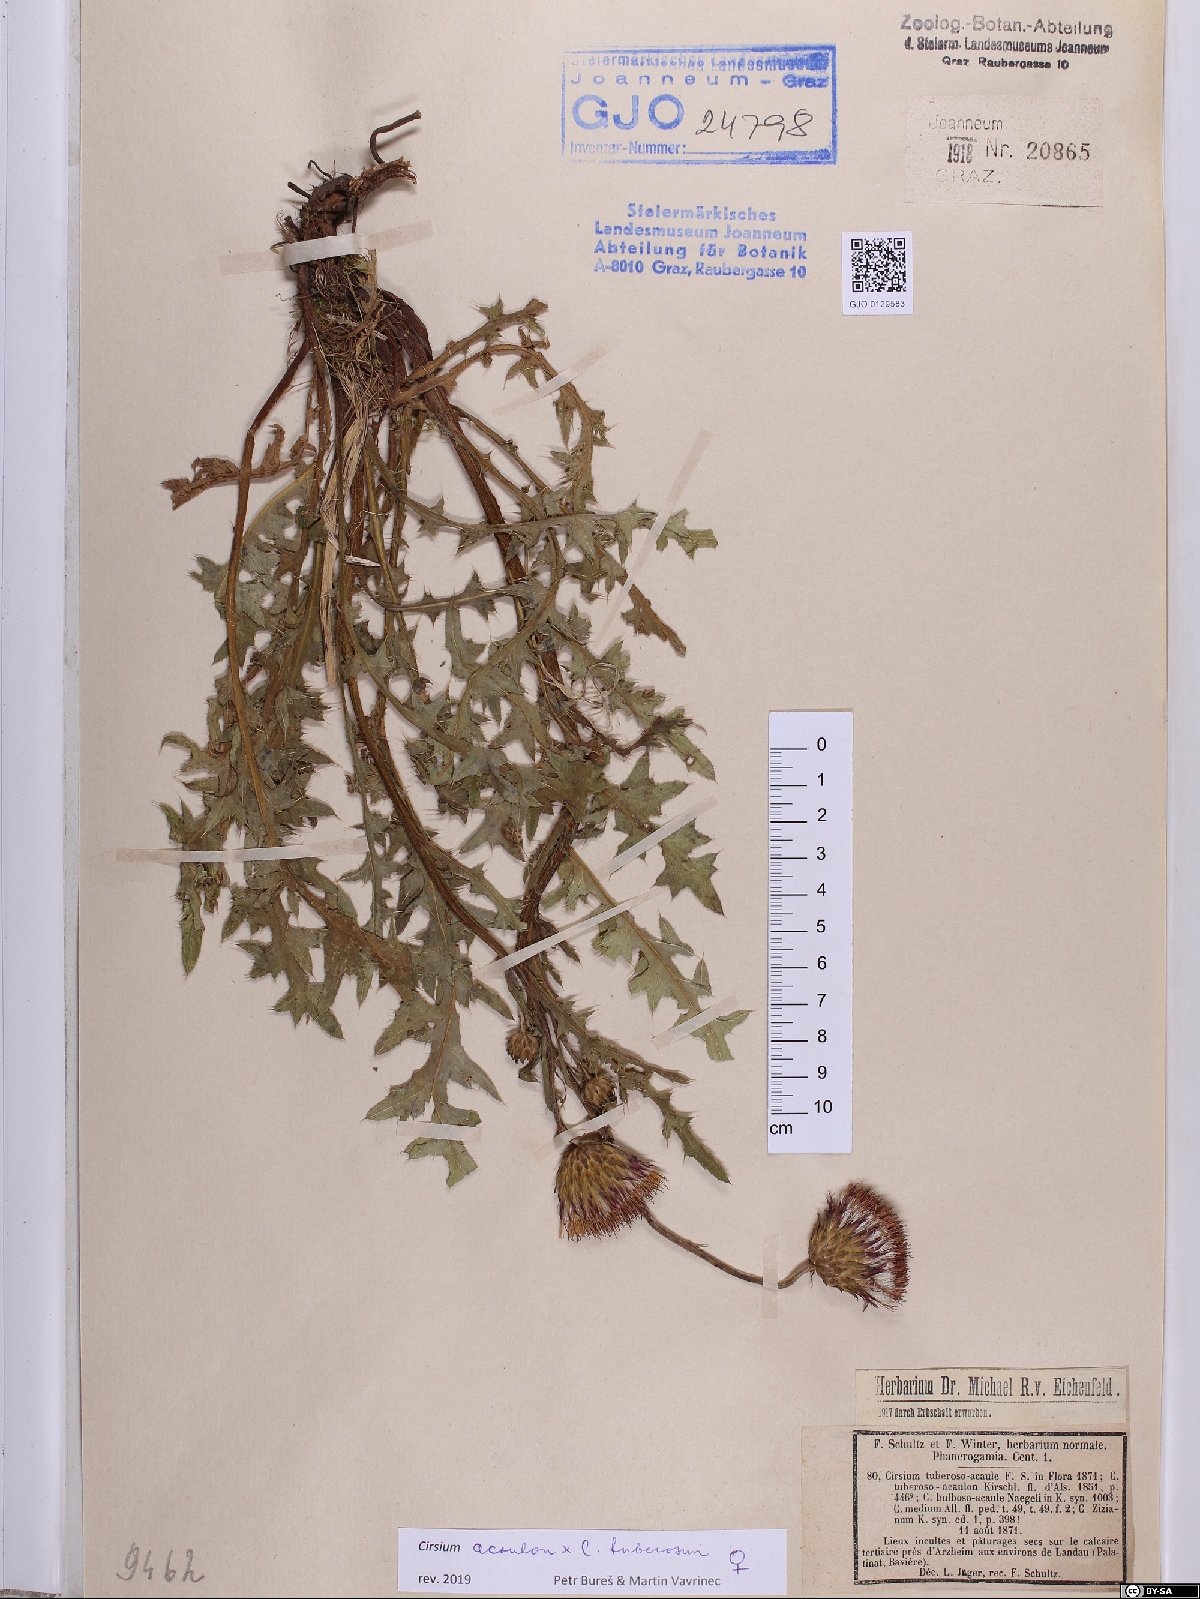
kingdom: Plantae
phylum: Tracheophyta
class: Magnoliopsida
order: Asterales
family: Asteraceae
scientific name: Asteraceae
